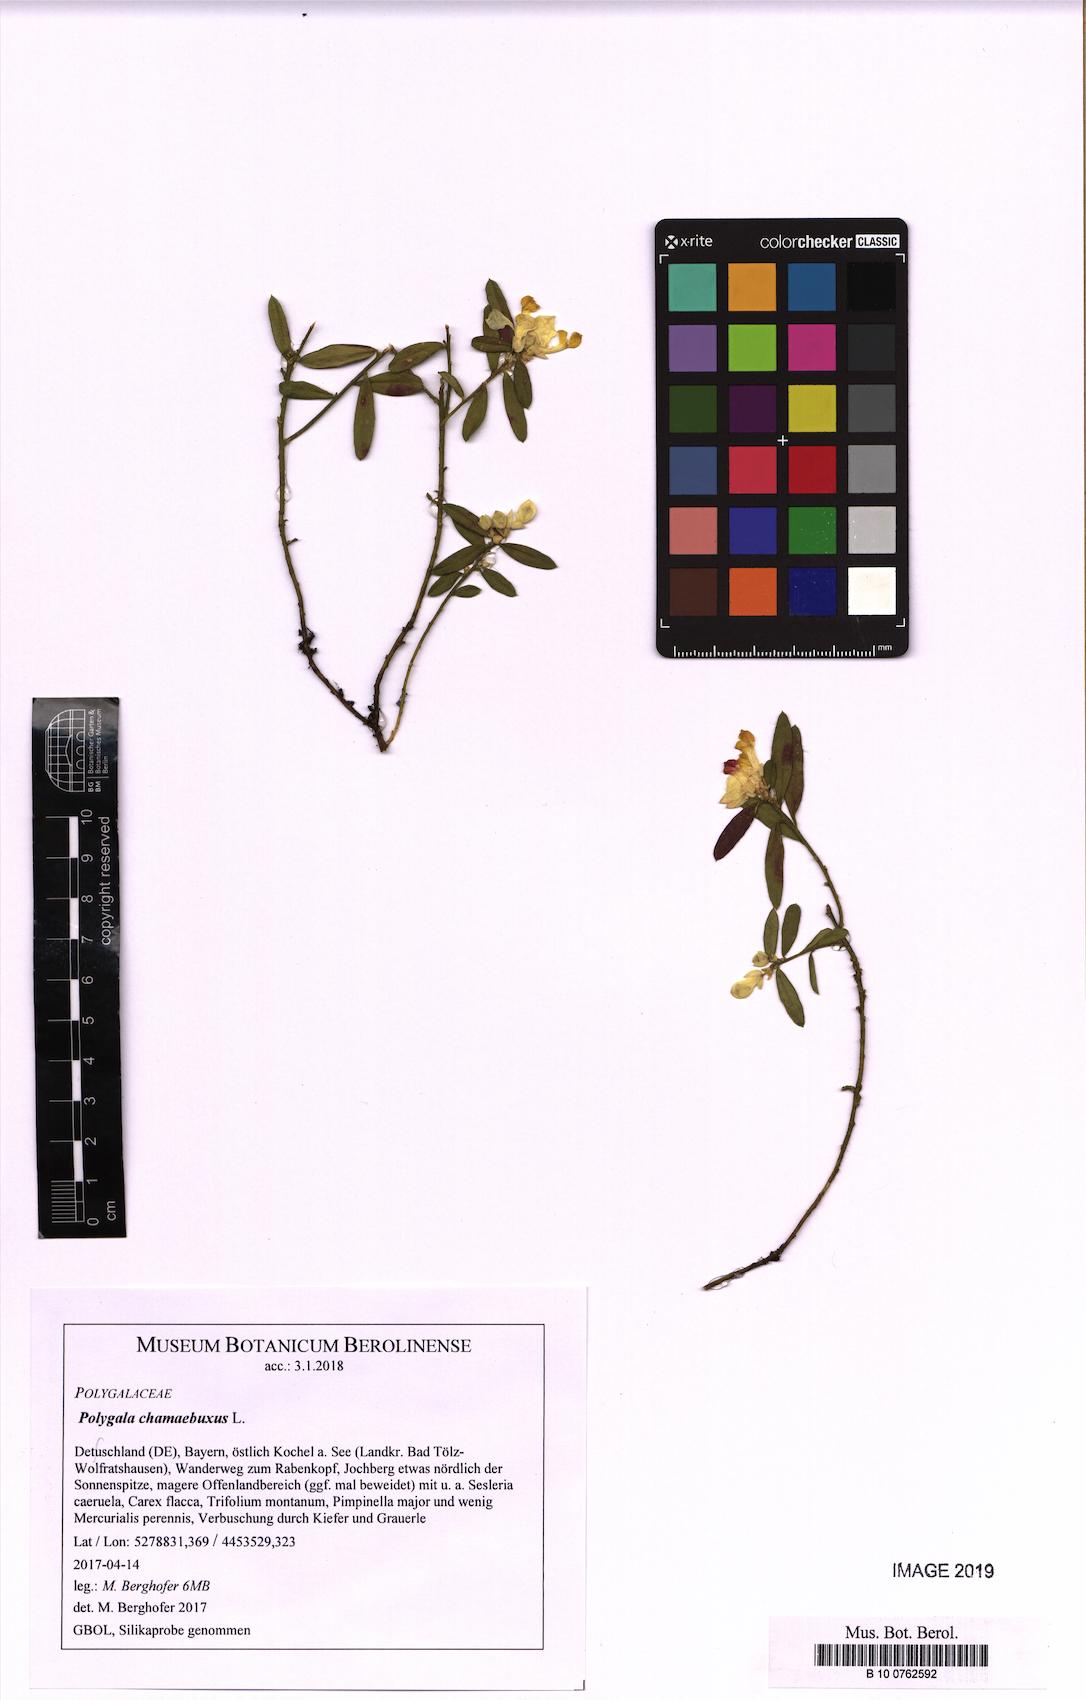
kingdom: Plantae
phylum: Tracheophyta
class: Magnoliopsida
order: Fabales
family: Polygalaceae
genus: Polygaloides
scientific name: Polygaloides chamaebuxus
